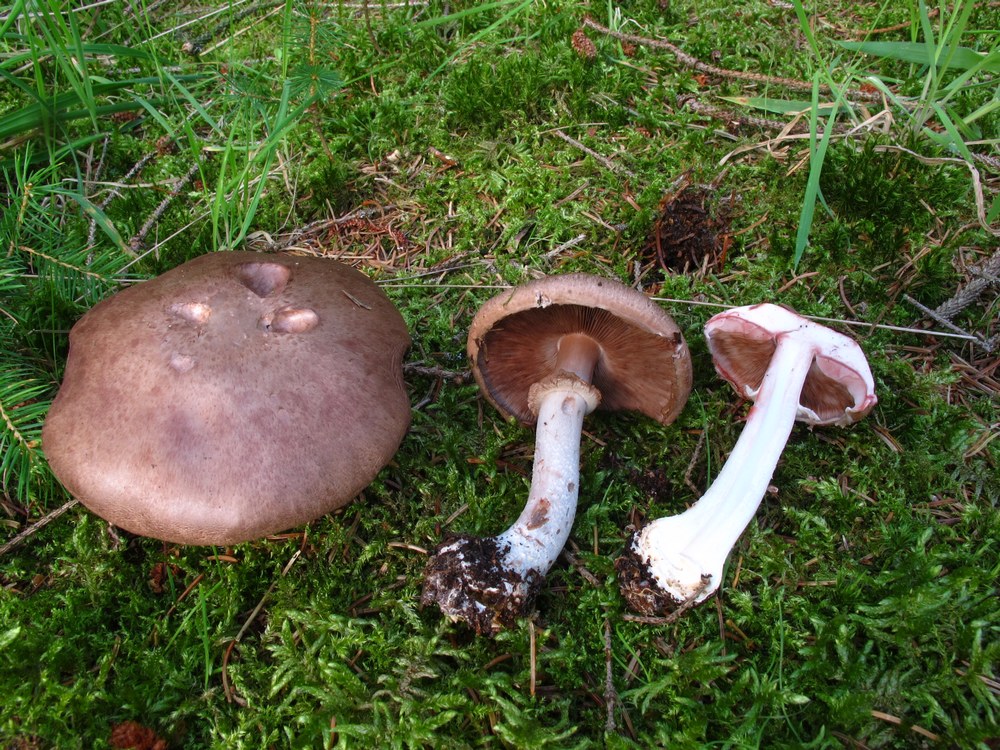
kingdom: Fungi
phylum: Basidiomycota
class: Agaricomycetes
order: Agaricales
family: Agaricaceae
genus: Agaricus
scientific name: Agaricus sylvaticus
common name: lille blod-champignon
